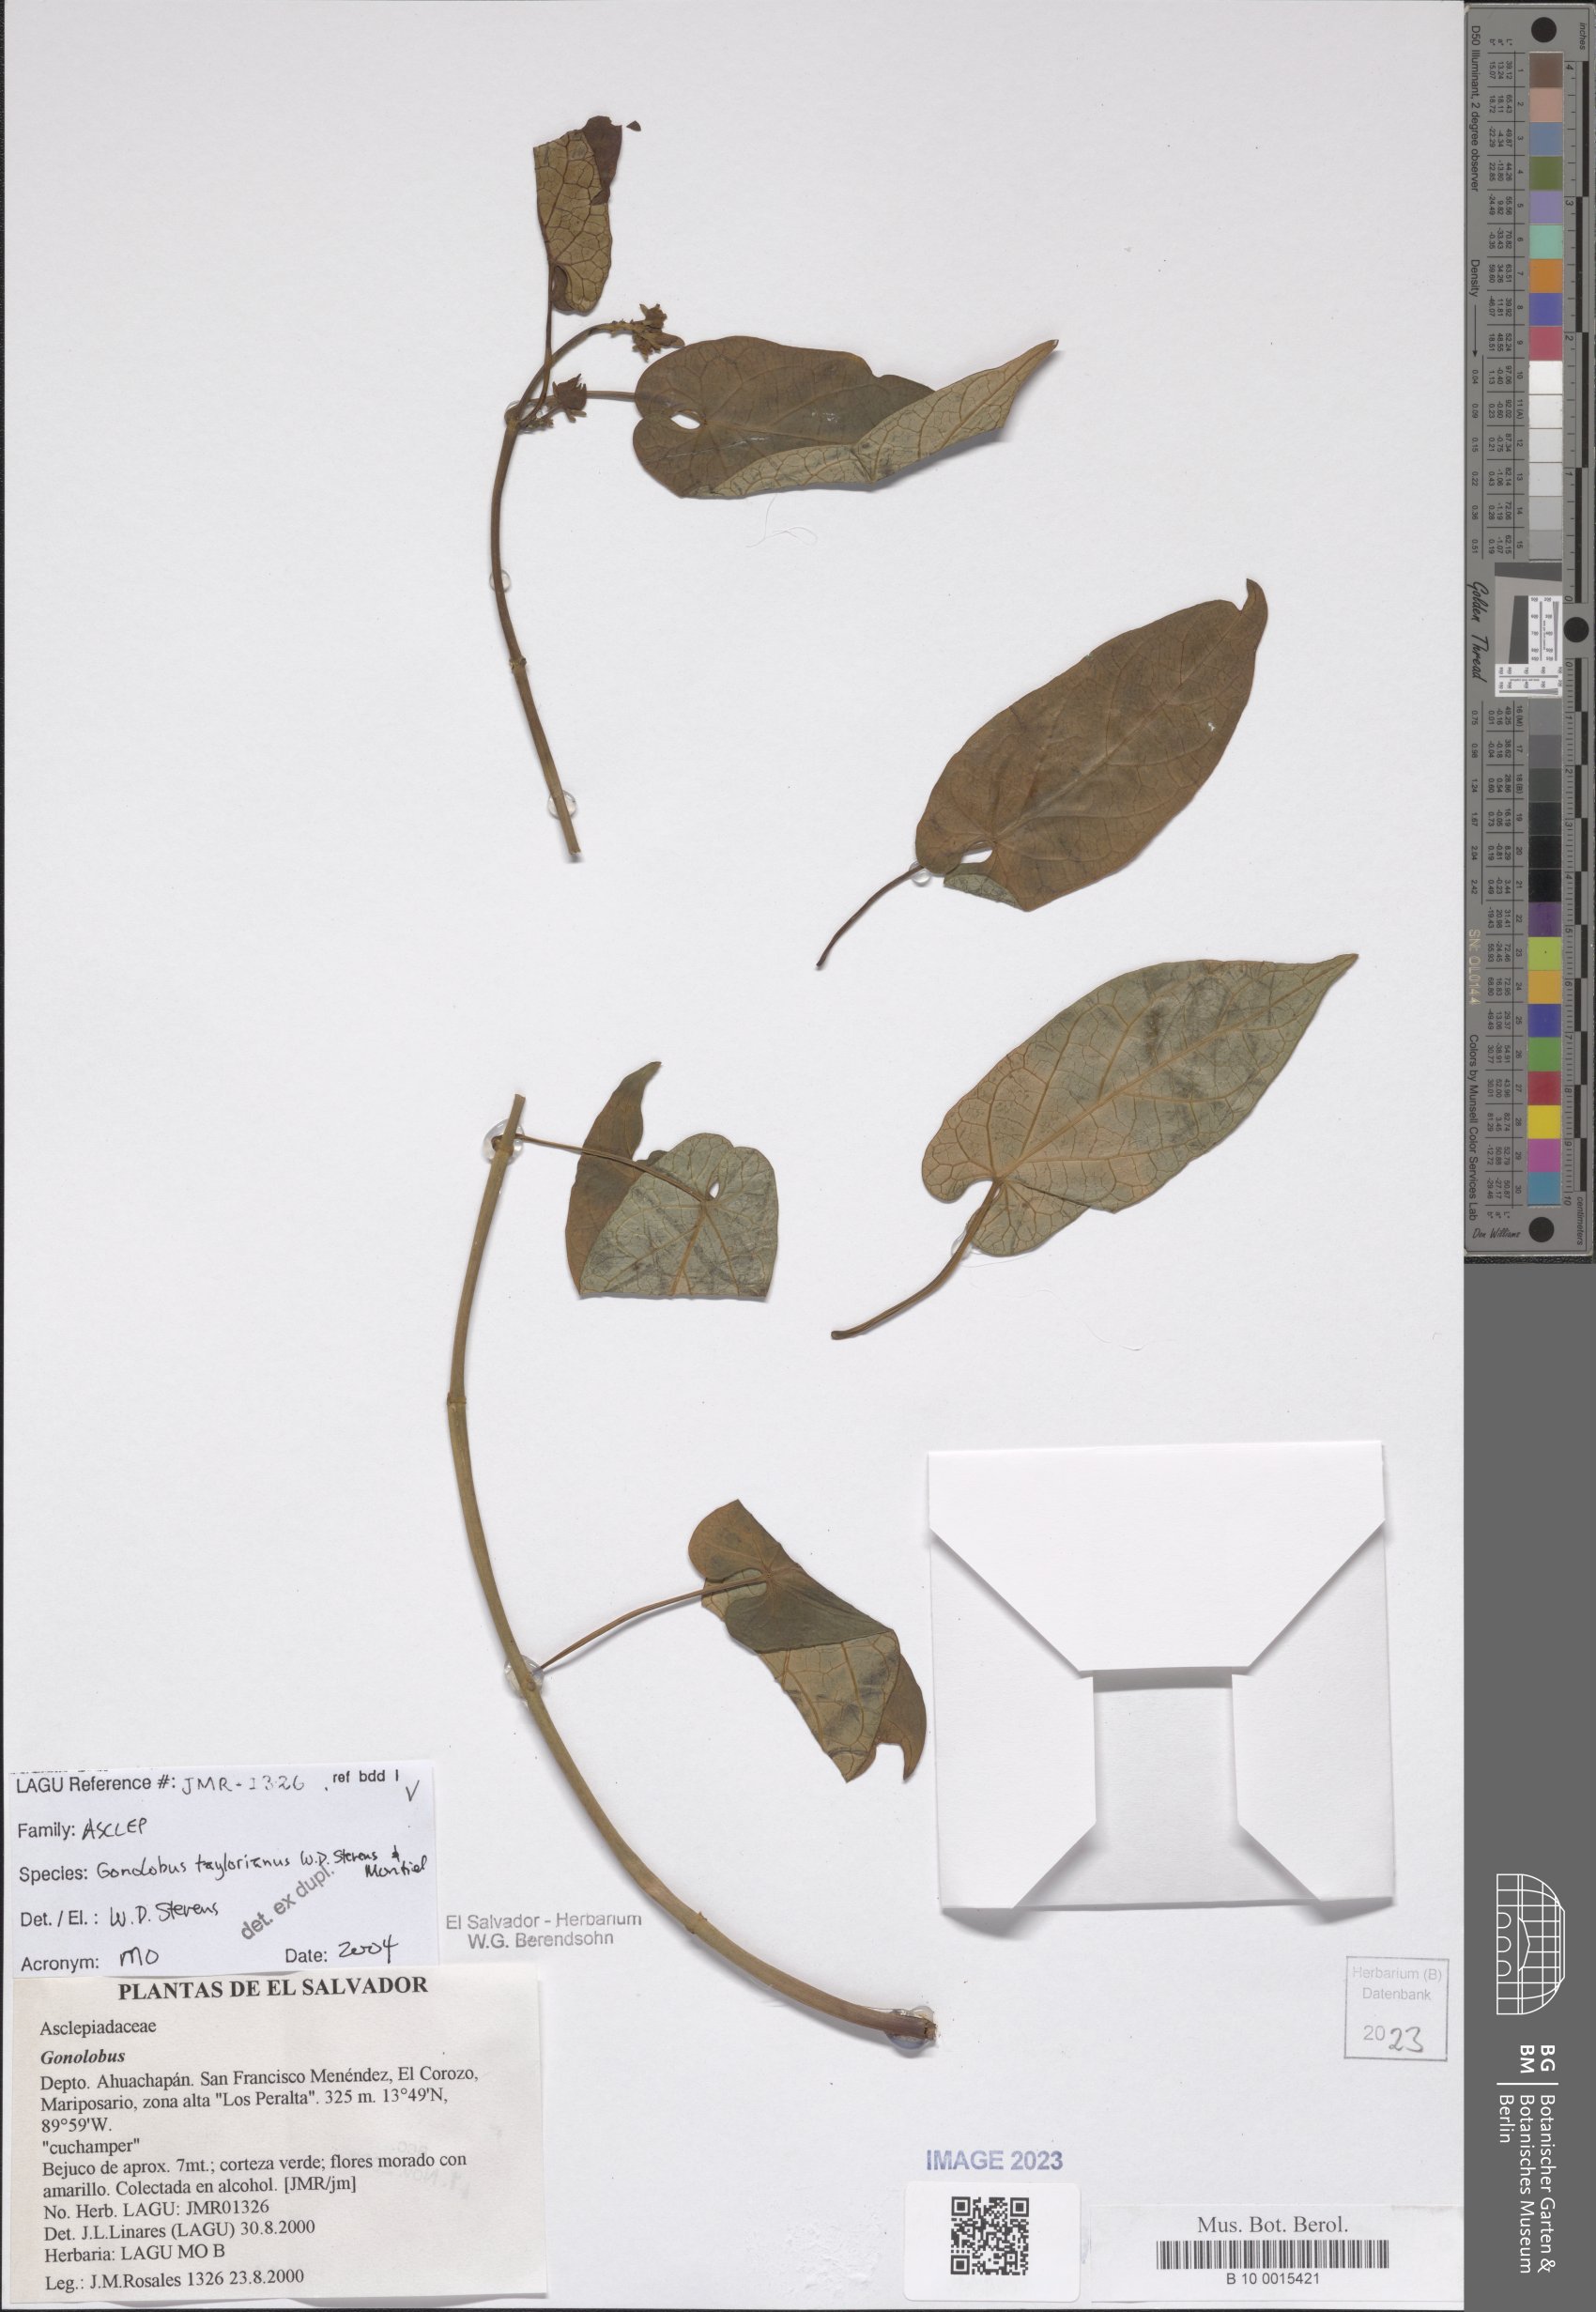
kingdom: Plantae
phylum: Tracheophyta
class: Magnoliopsida
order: Gentianales
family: Apocynaceae
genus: Gonolobus
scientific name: Gonolobus taylorianus
